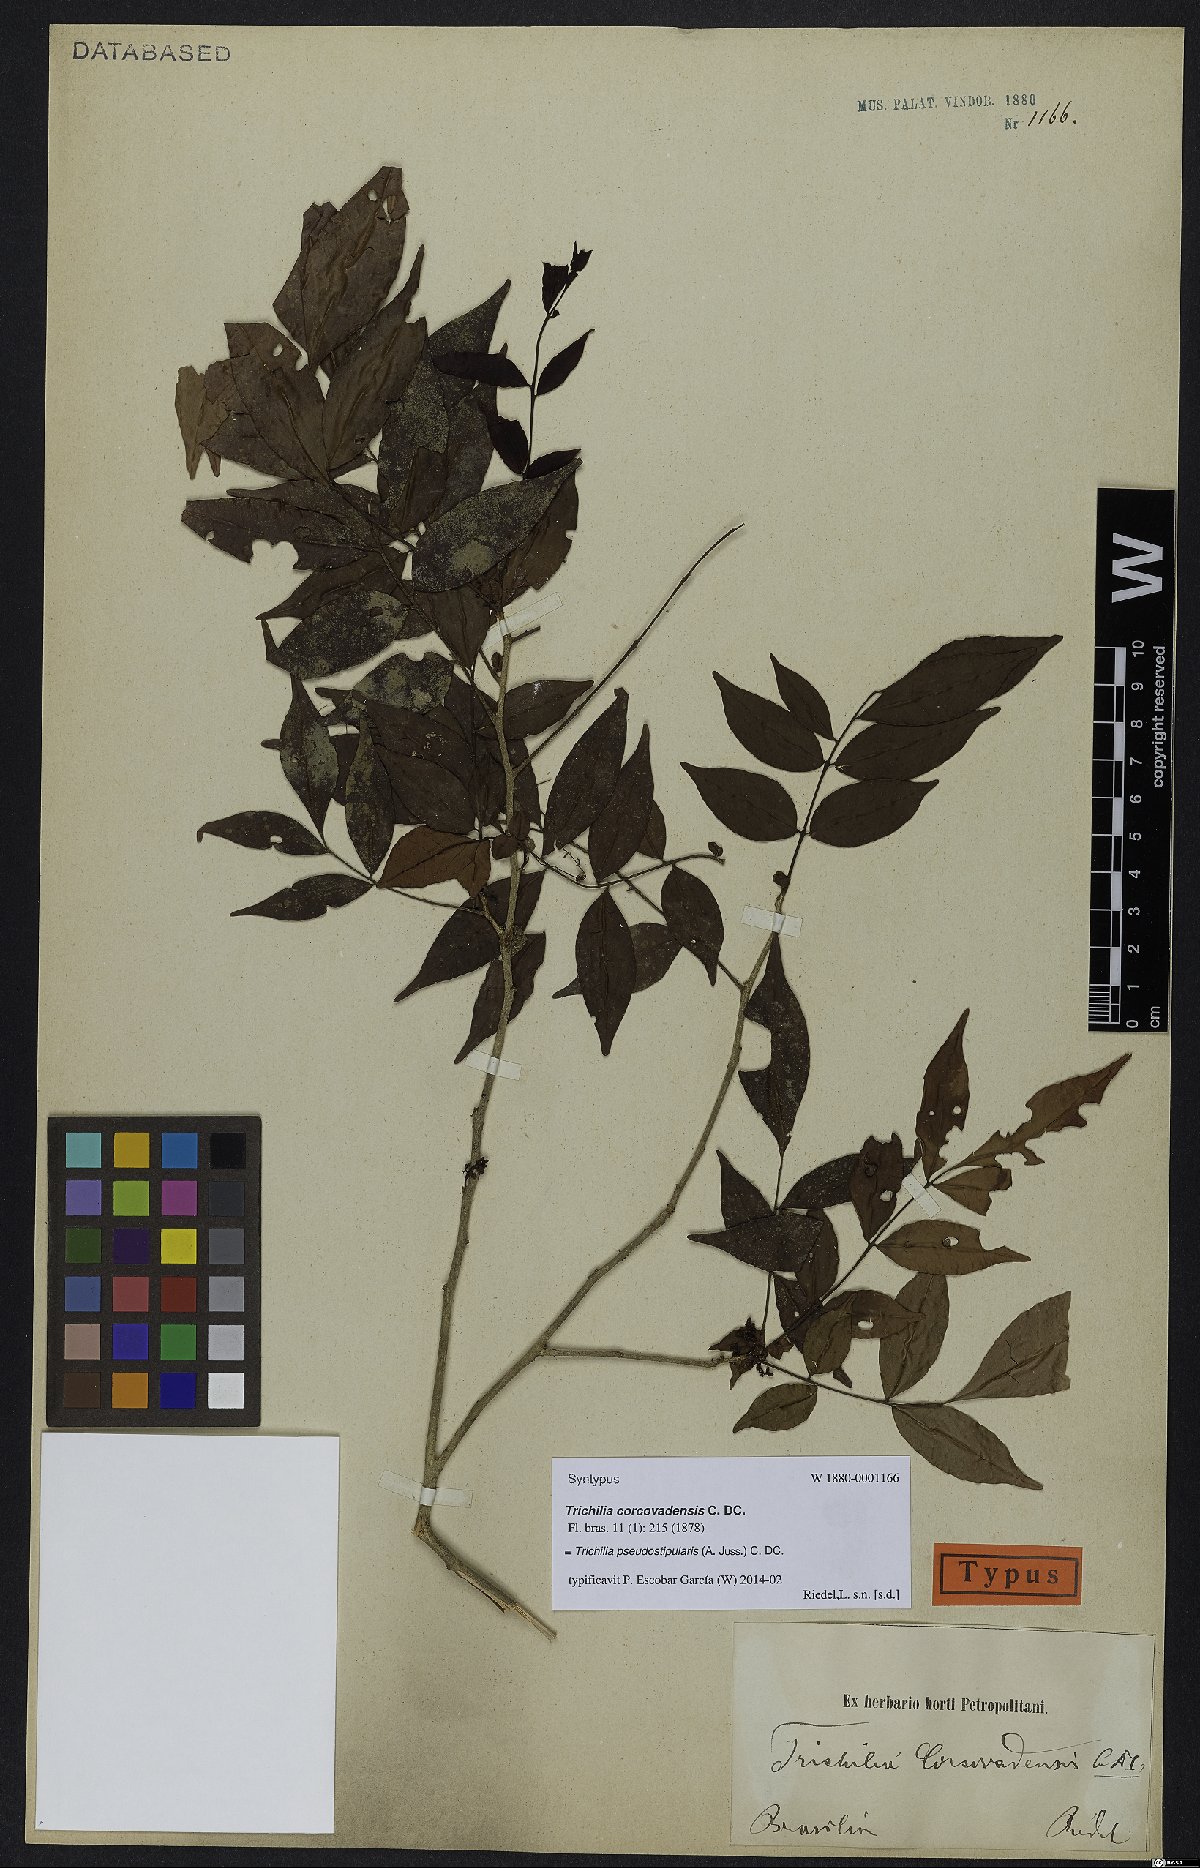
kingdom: Plantae
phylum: Tracheophyta
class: Magnoliopsida
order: Sapindales
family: Meliaceae
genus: Trichilia
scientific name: Trichilia pseudostipularis
